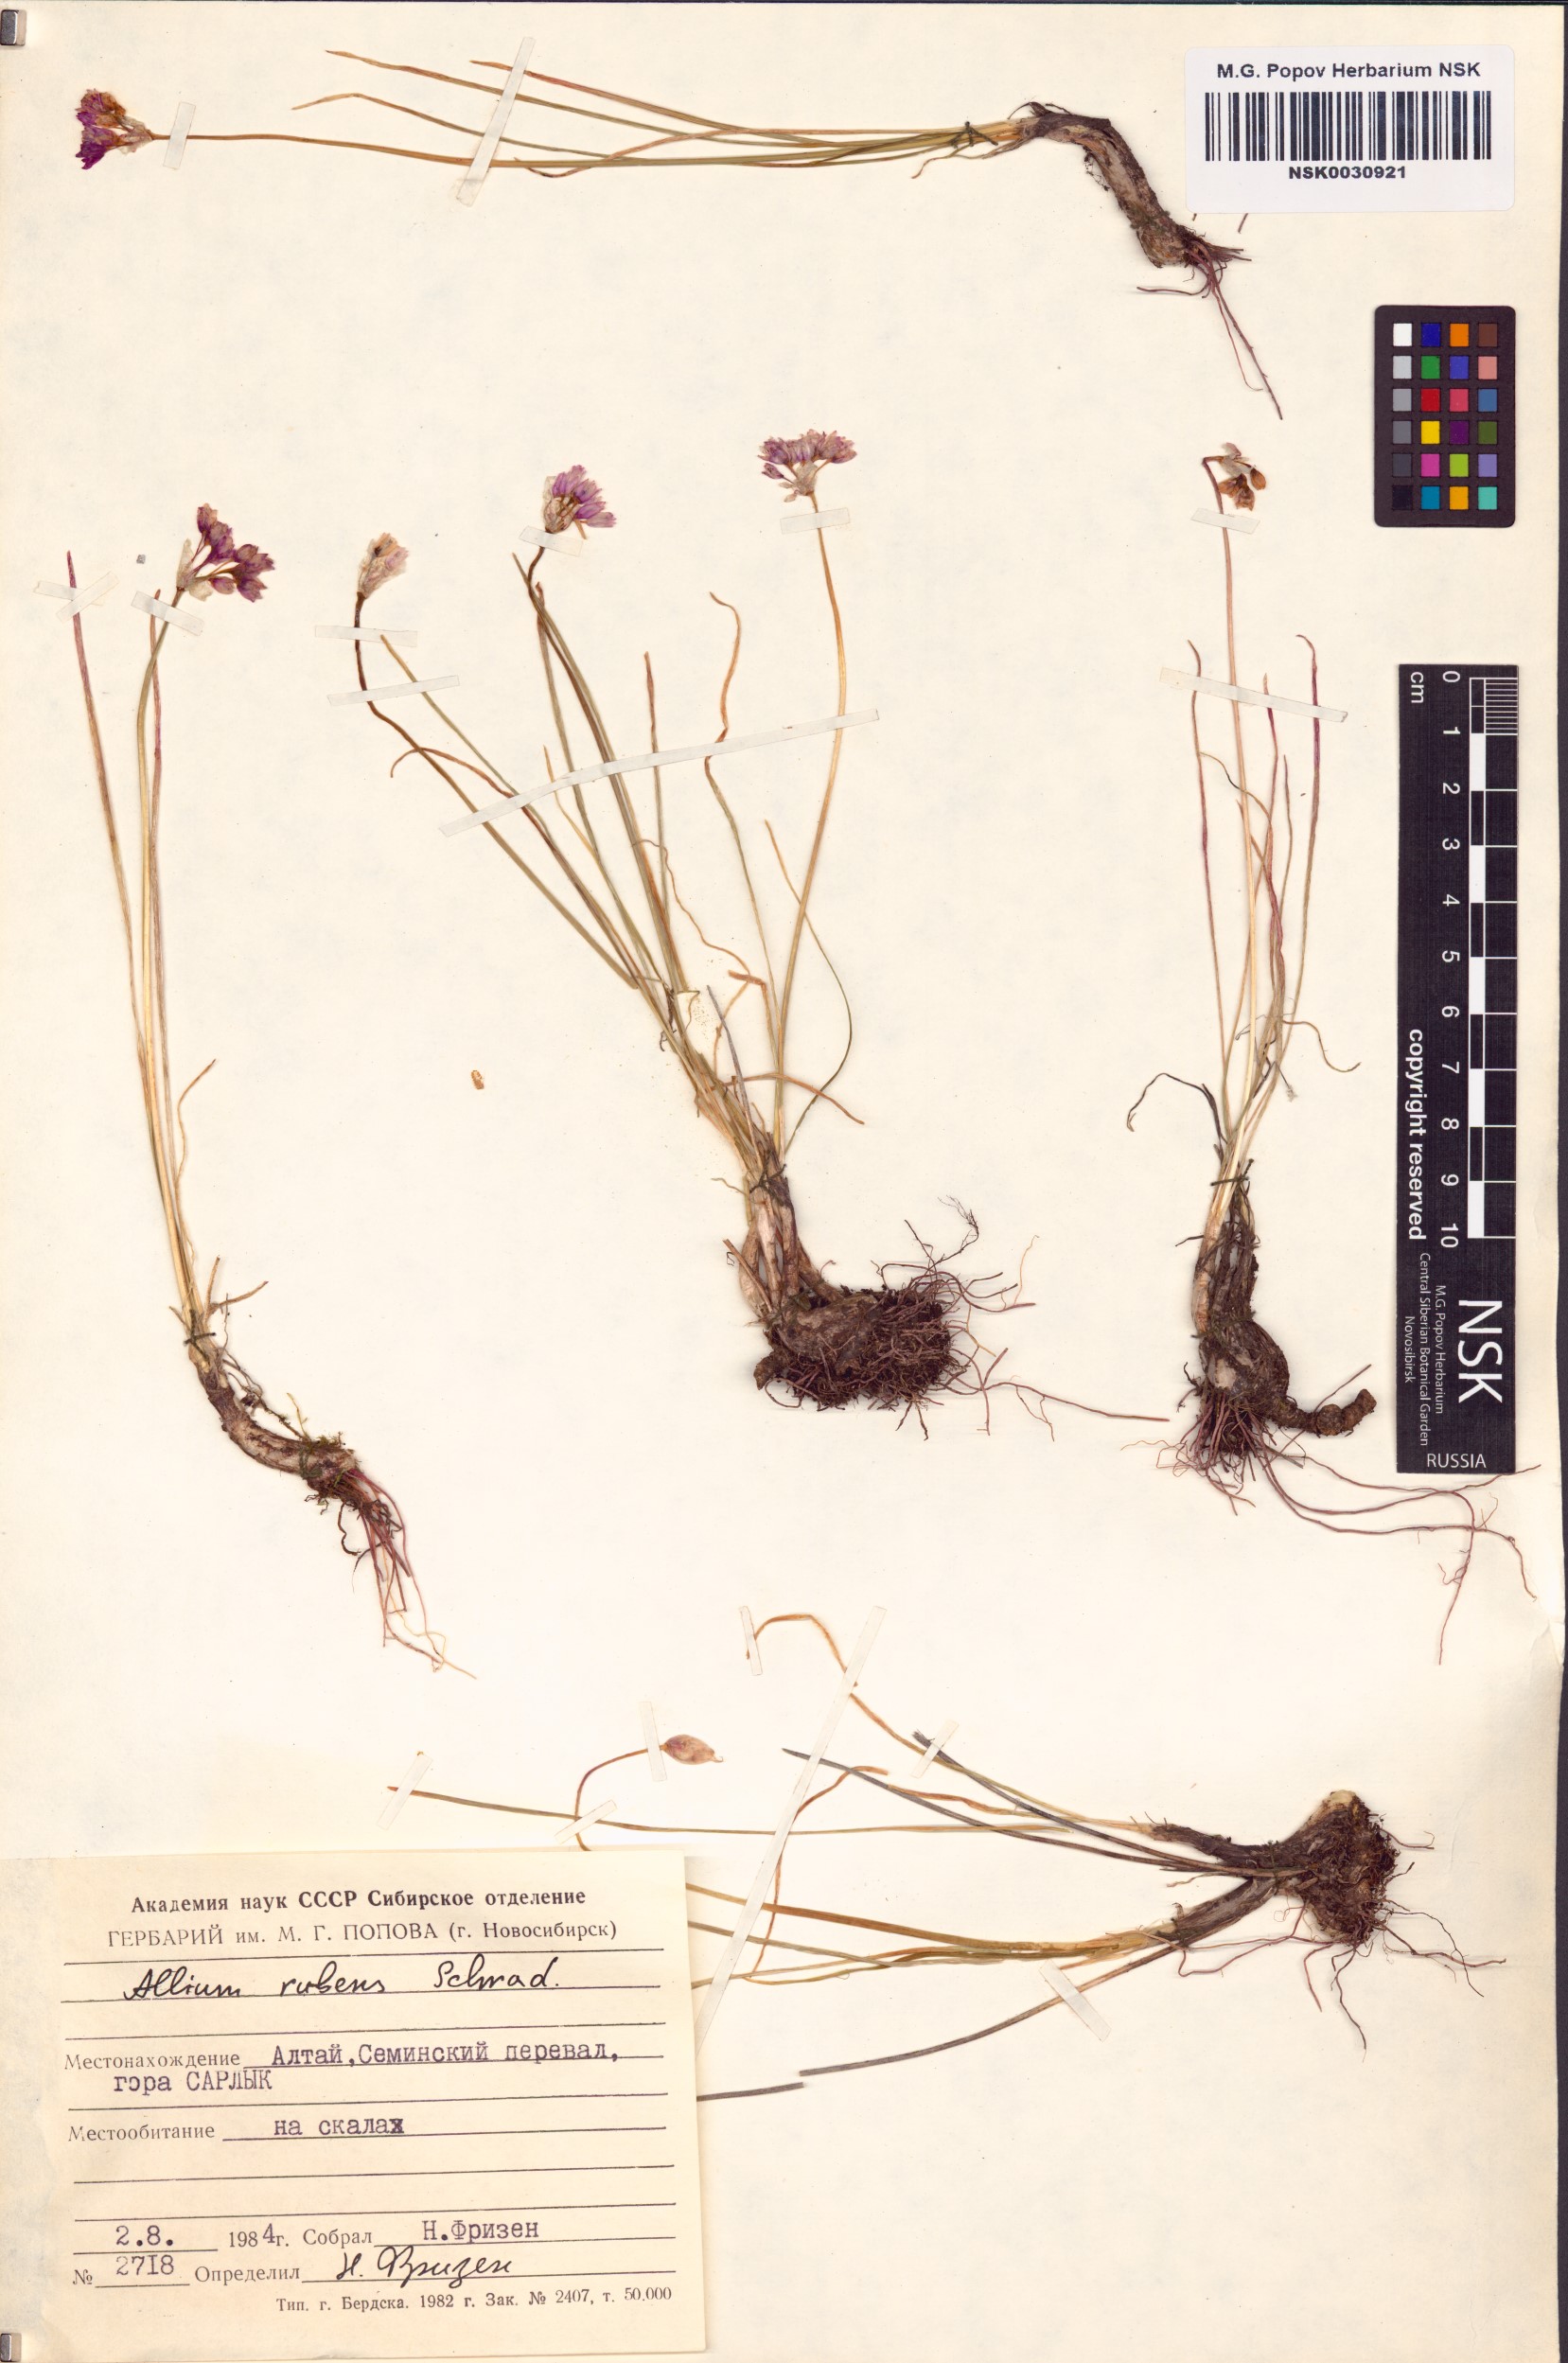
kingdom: Plantae
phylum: Tracheophyta
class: Liliopsida
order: Asparagales
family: Amaryllidaceae
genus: Allium
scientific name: Allium rubens
